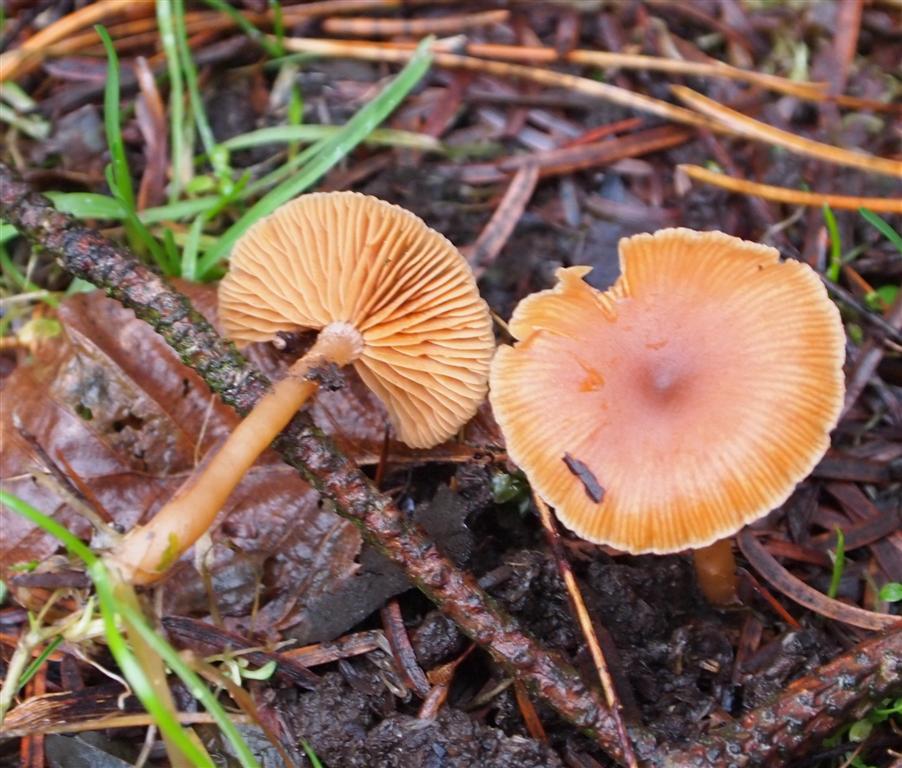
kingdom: Fungi
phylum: Basidiomycota
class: Agaricomycetes
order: Agaricales
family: Tubariaceae
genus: Tubaria
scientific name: Tubaria furfuracea
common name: kliddet fnughat
